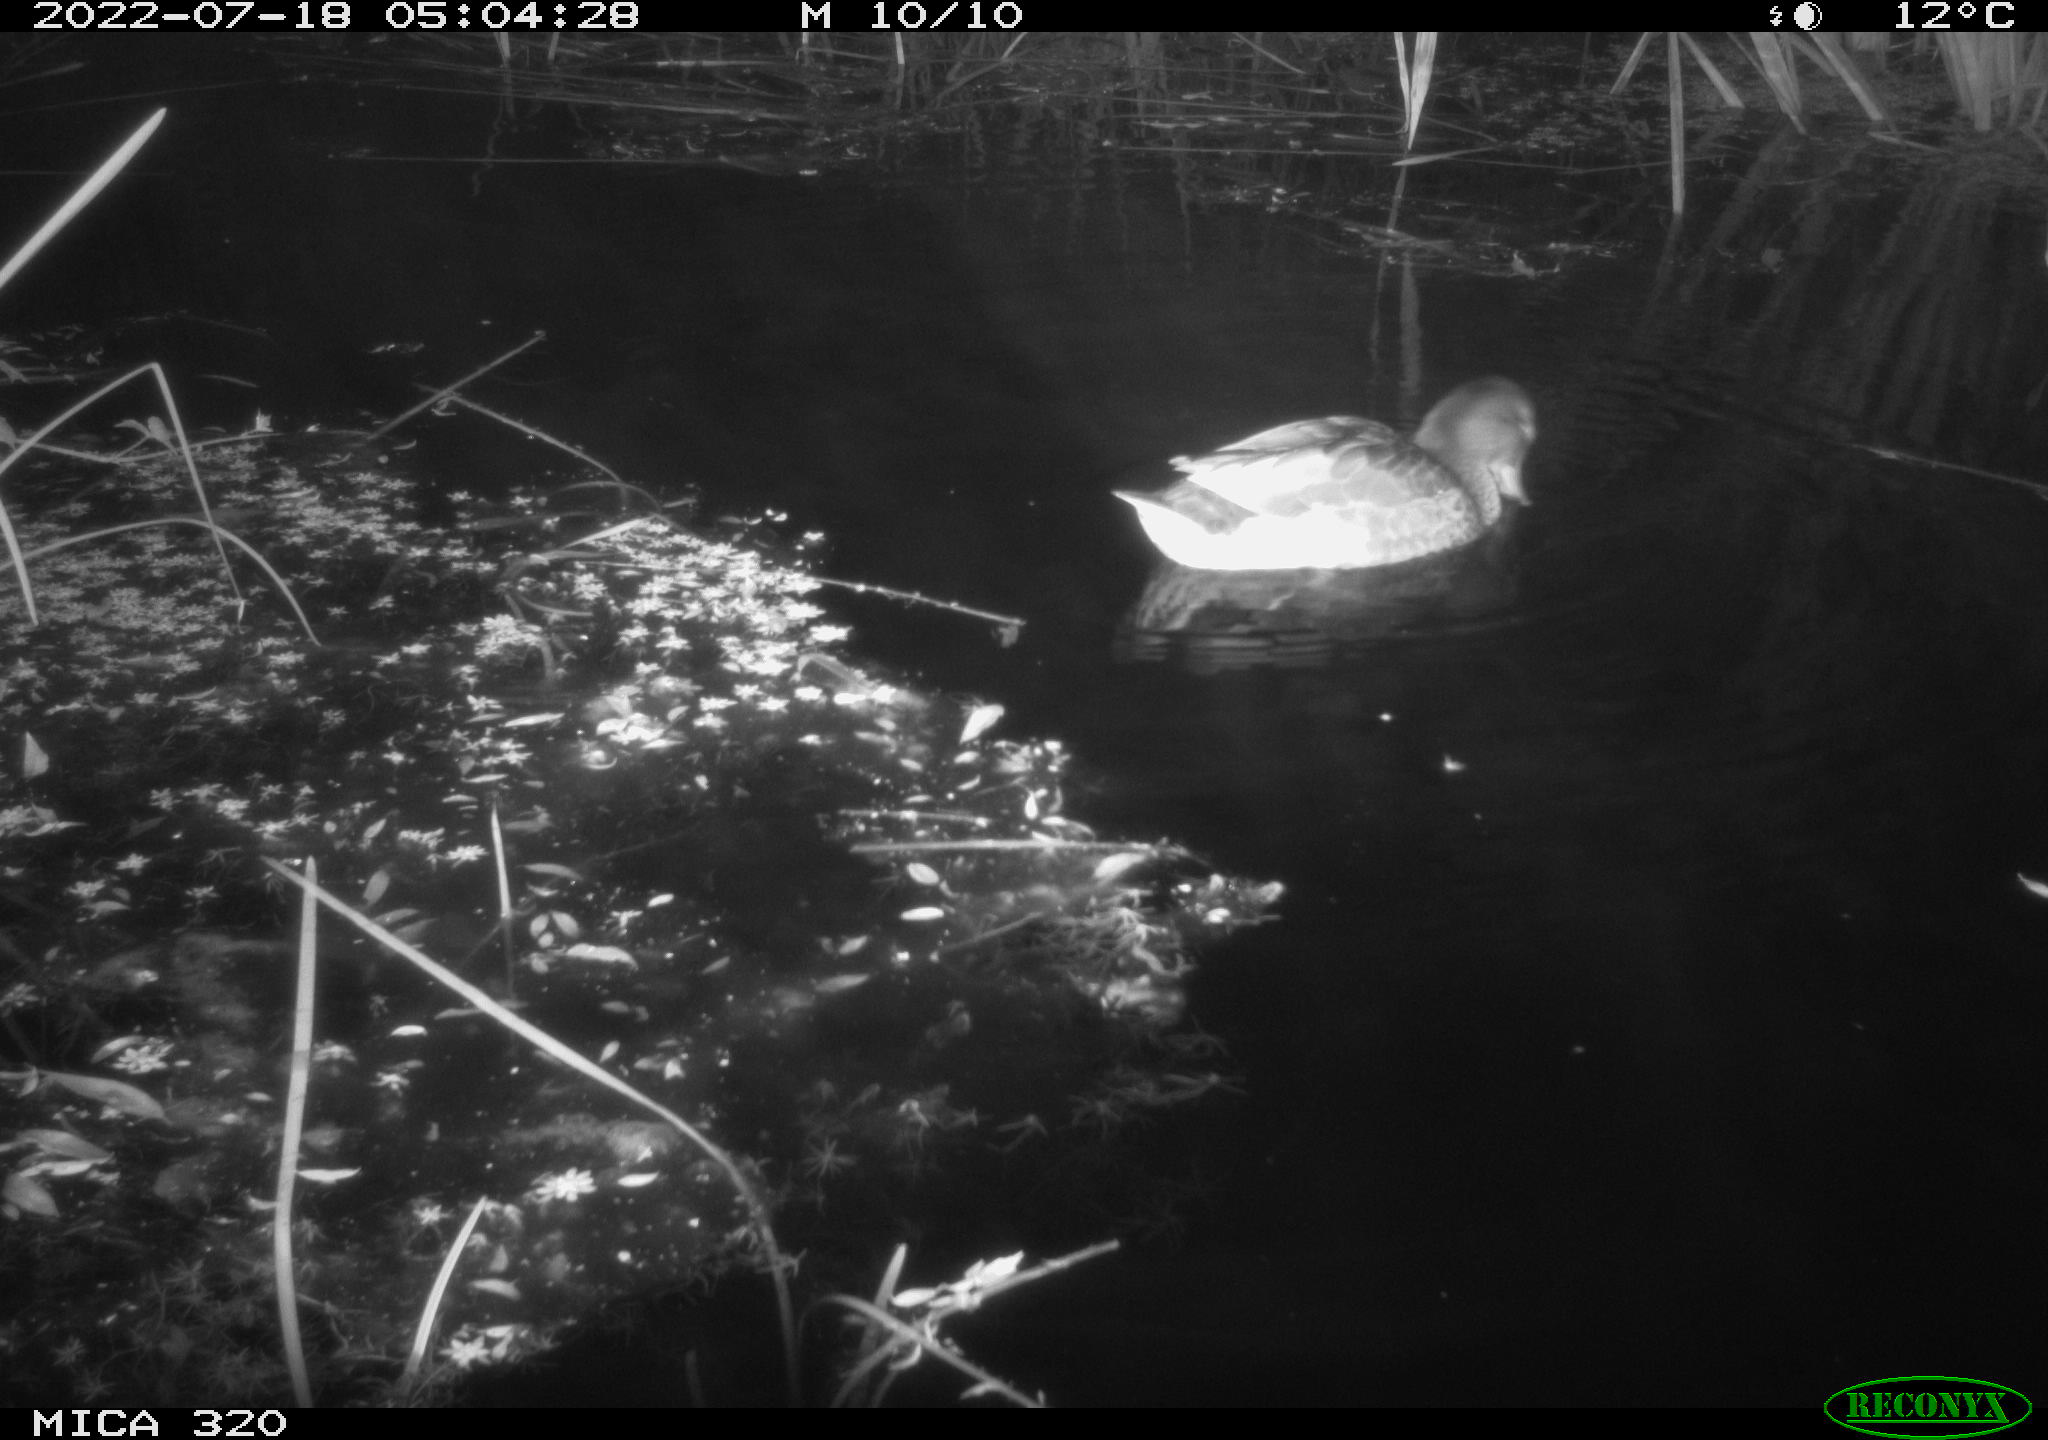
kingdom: Animalia
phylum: Chordata
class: Aves
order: Anseriformes
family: Anatidae
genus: Anas
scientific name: Anas platyrhynchos
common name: Mallard
